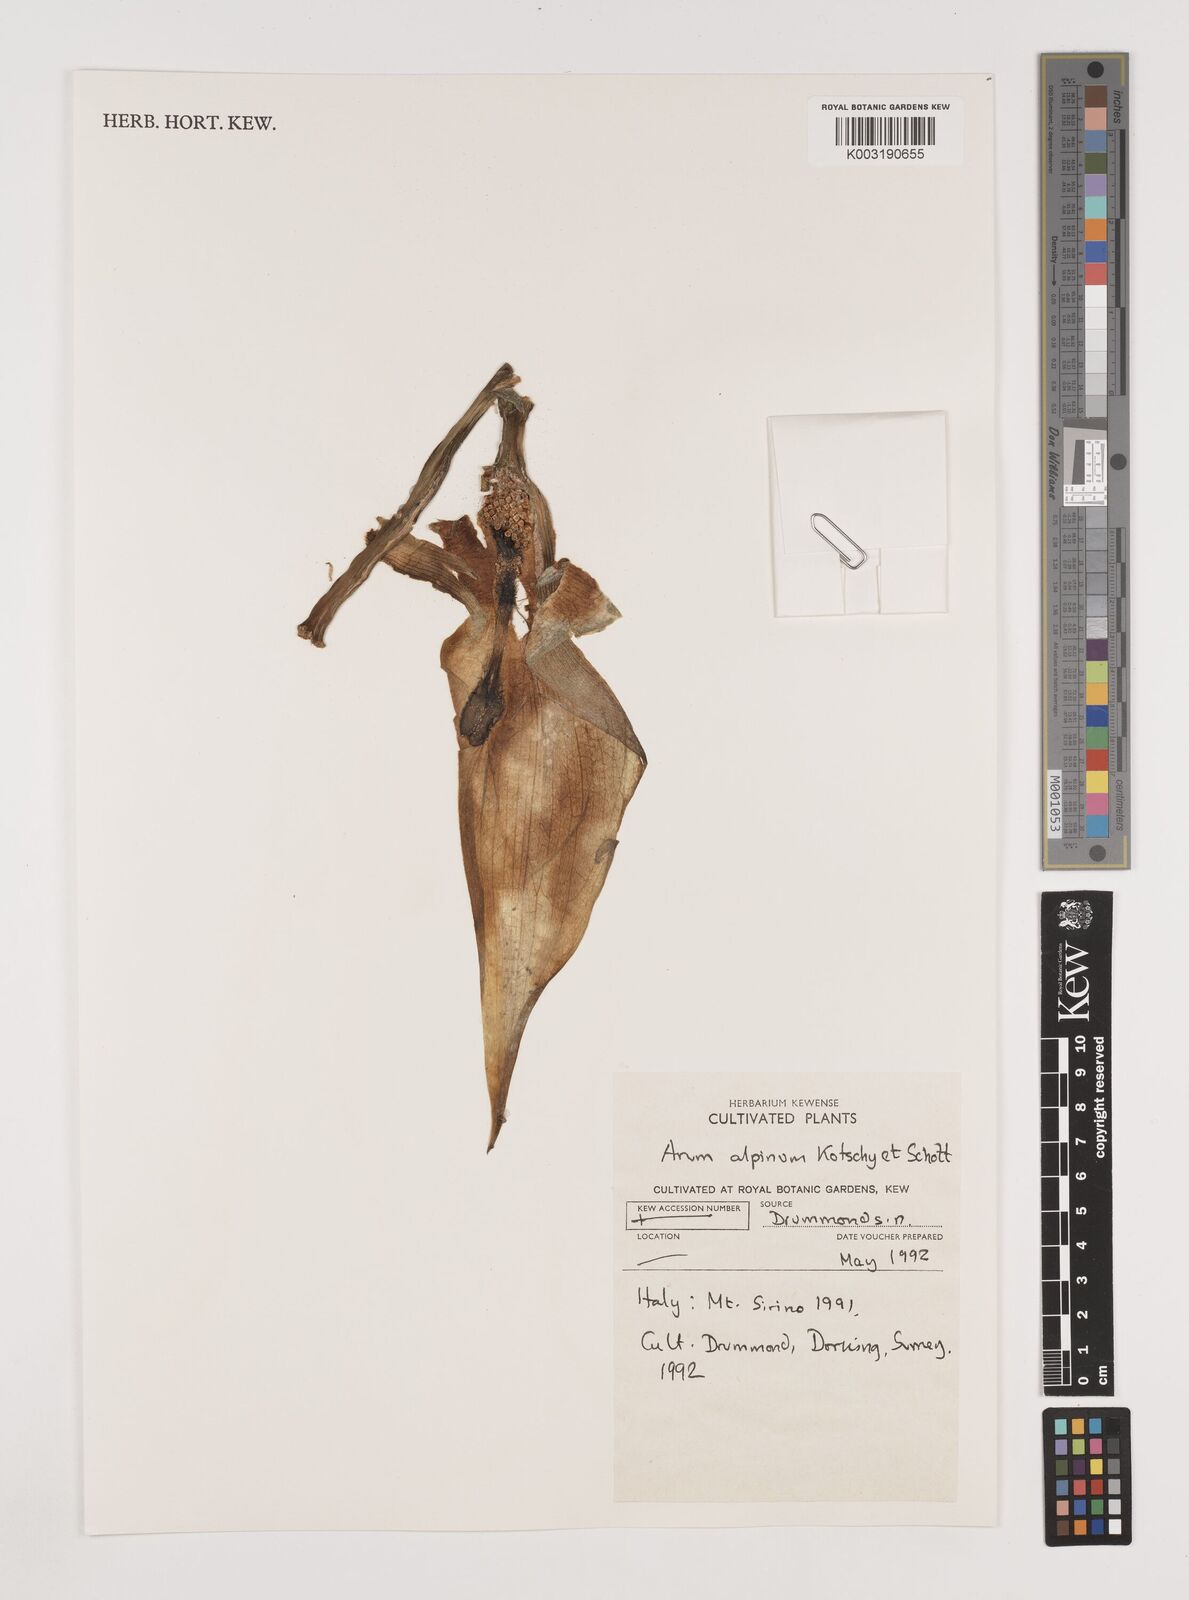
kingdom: Plantae
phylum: Tracheophyta
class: Liliopsida
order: Alismatales
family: Araceae
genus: Arum
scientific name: Arum cylindraceum
